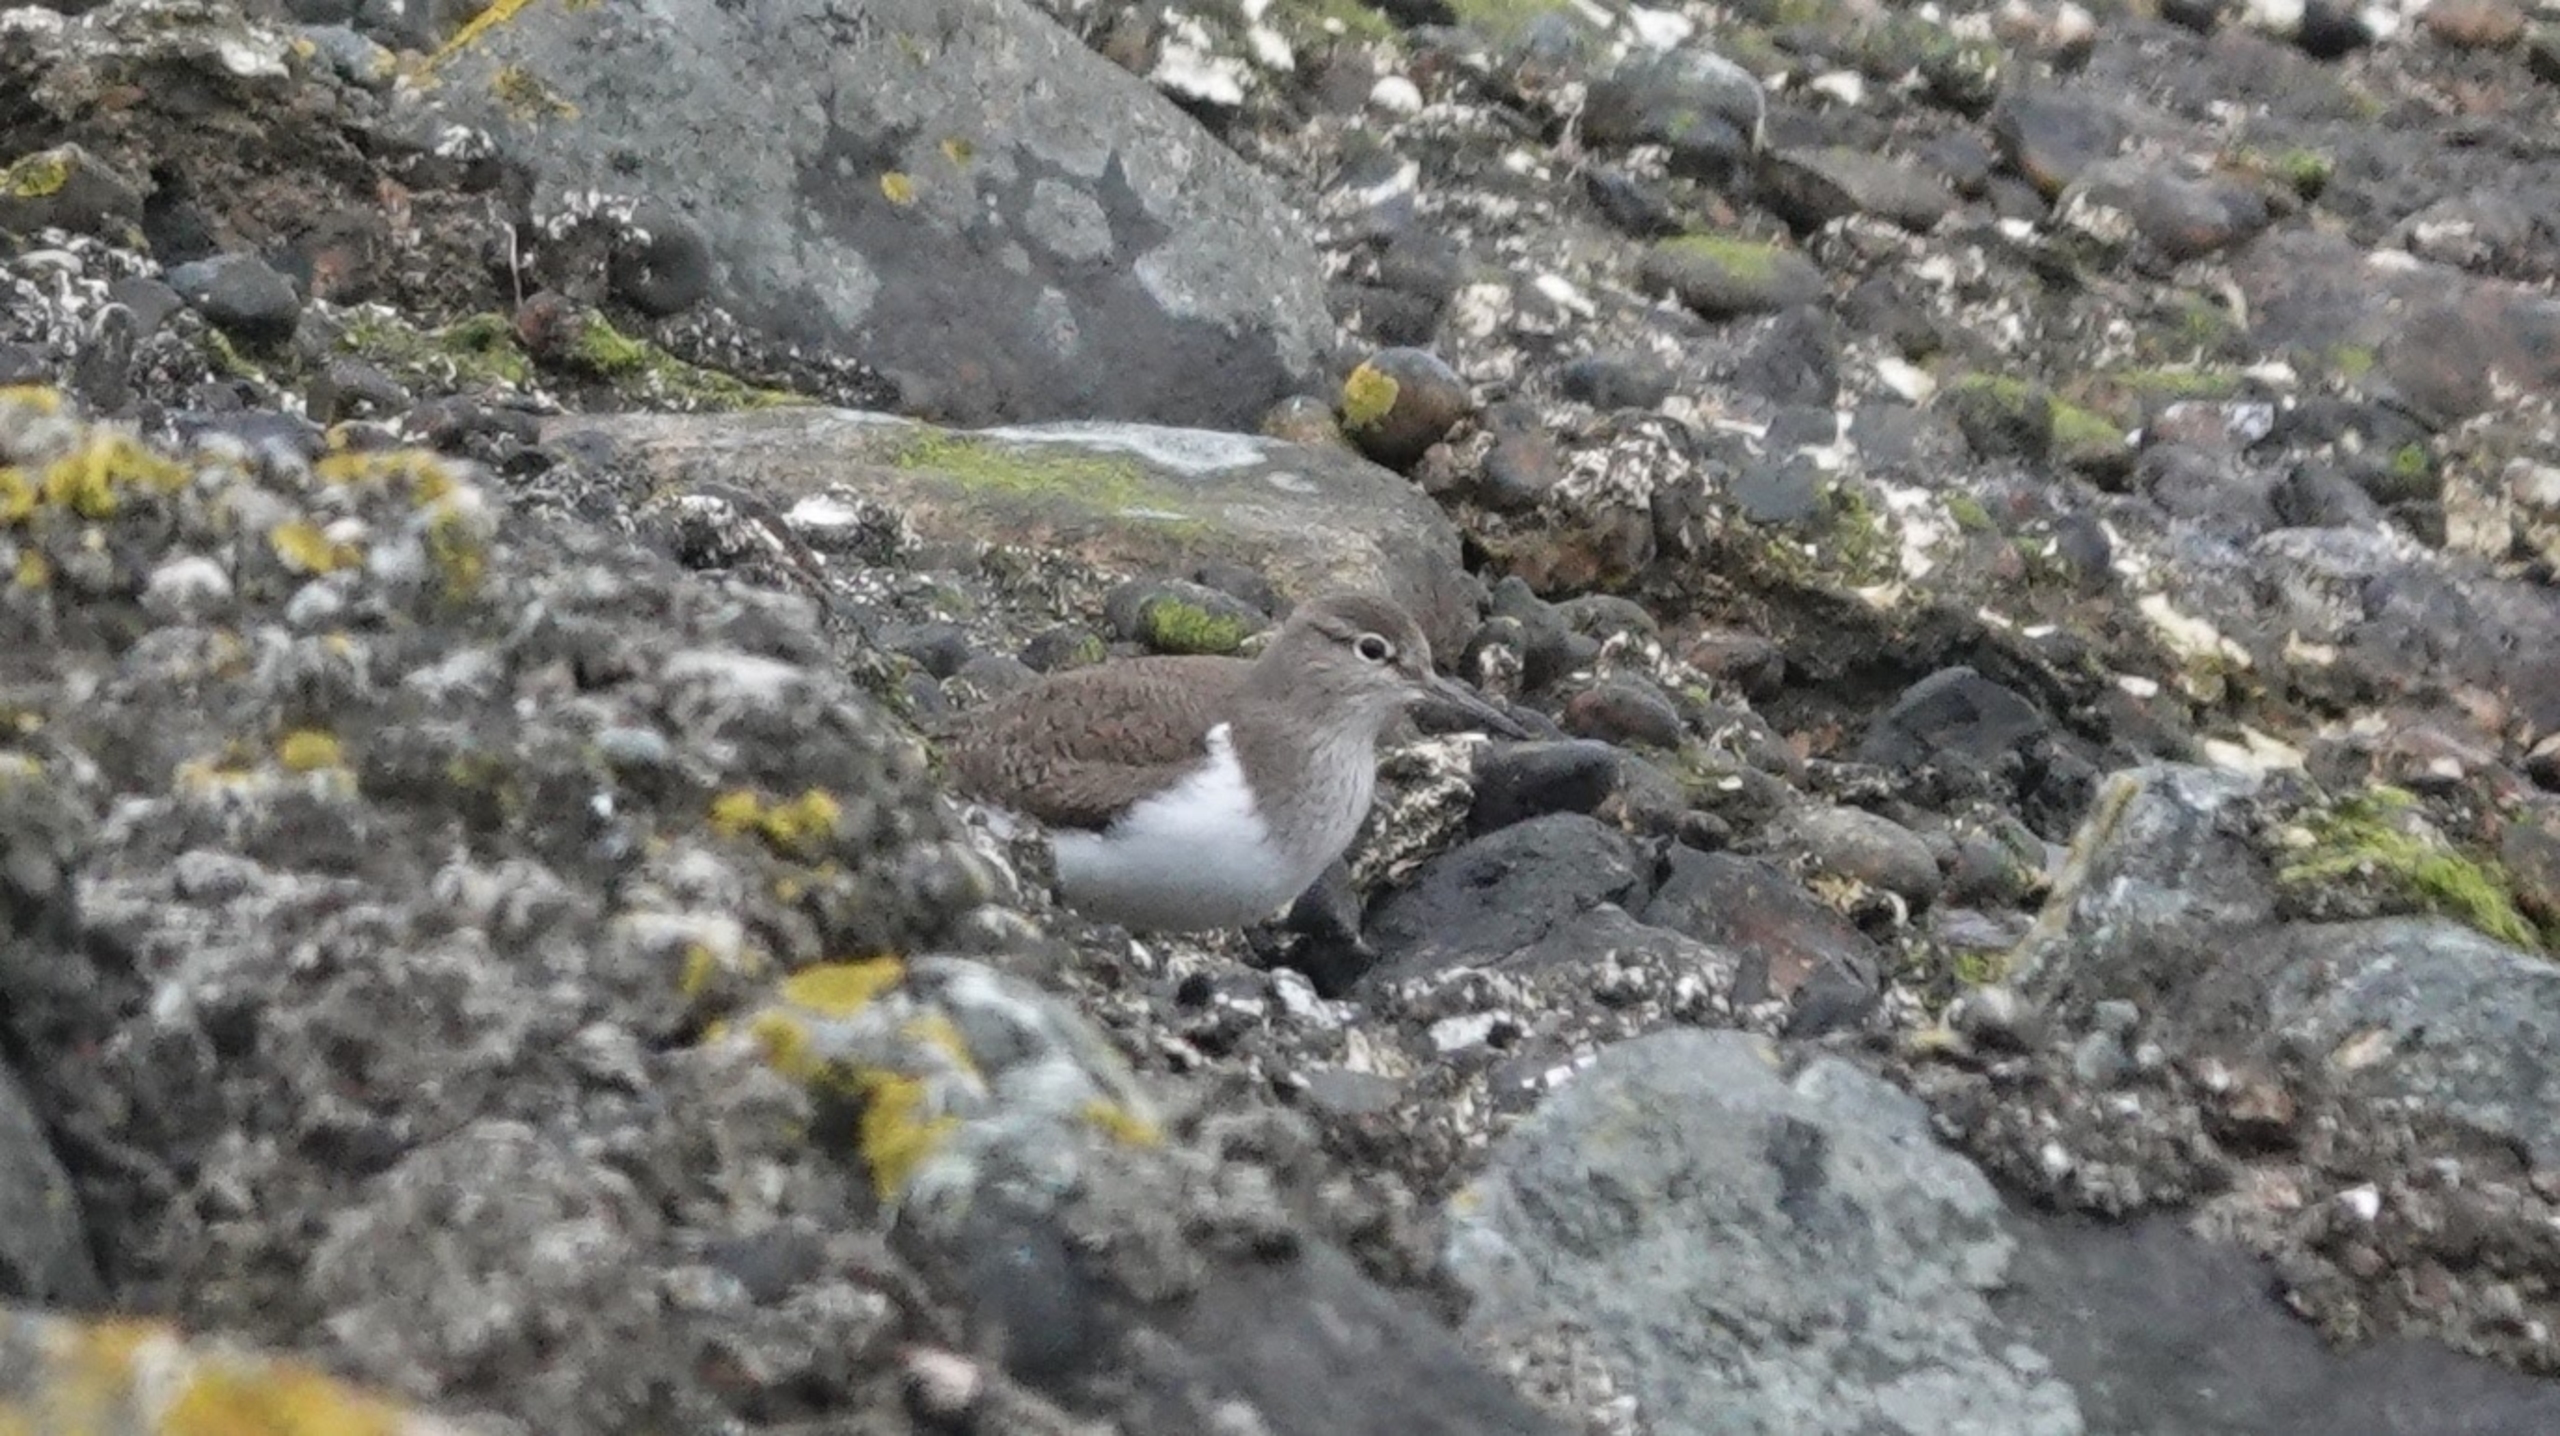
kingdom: Animalia
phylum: Chordata
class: Aves
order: Charadriiformes
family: Scolopacidae
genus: Actitis
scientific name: Actitis hypoleucos
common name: Mudderklire
